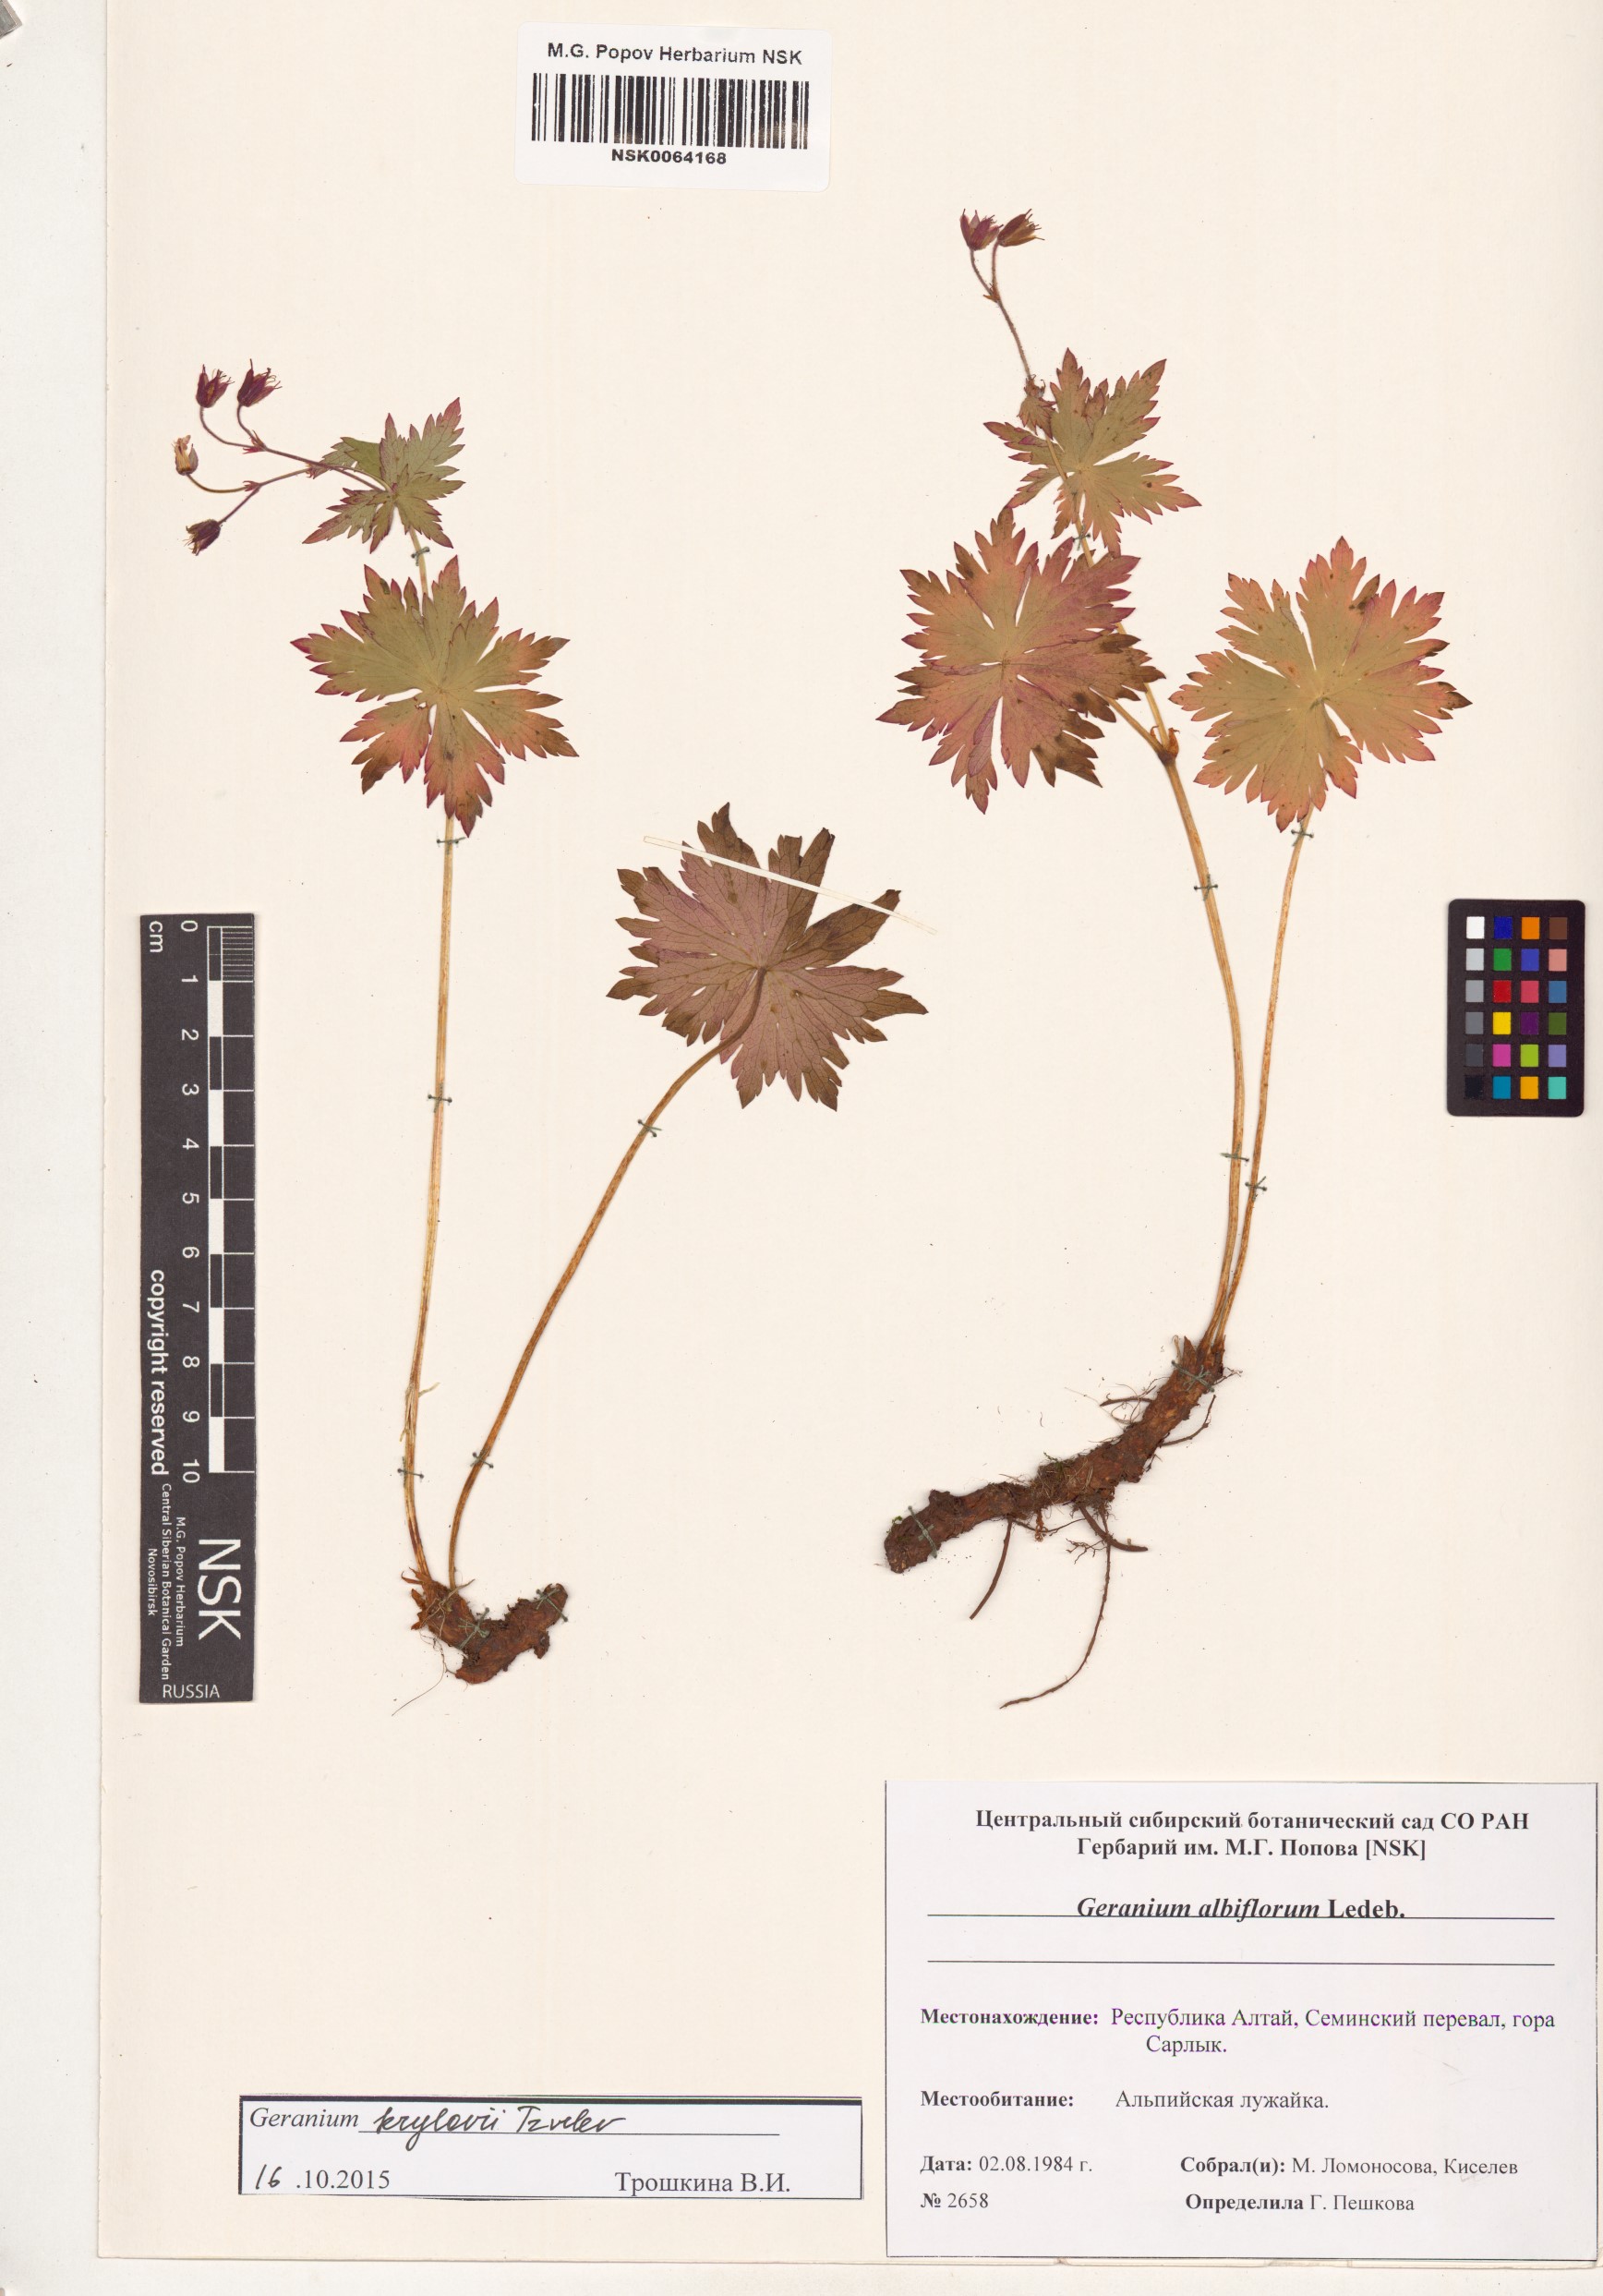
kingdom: Plantae
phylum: Tracheophyta
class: Magnoliopsida
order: Geraniales
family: Geraniaceae
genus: Geranium
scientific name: Geranium sylvaticum
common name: Wood crane's-bill
